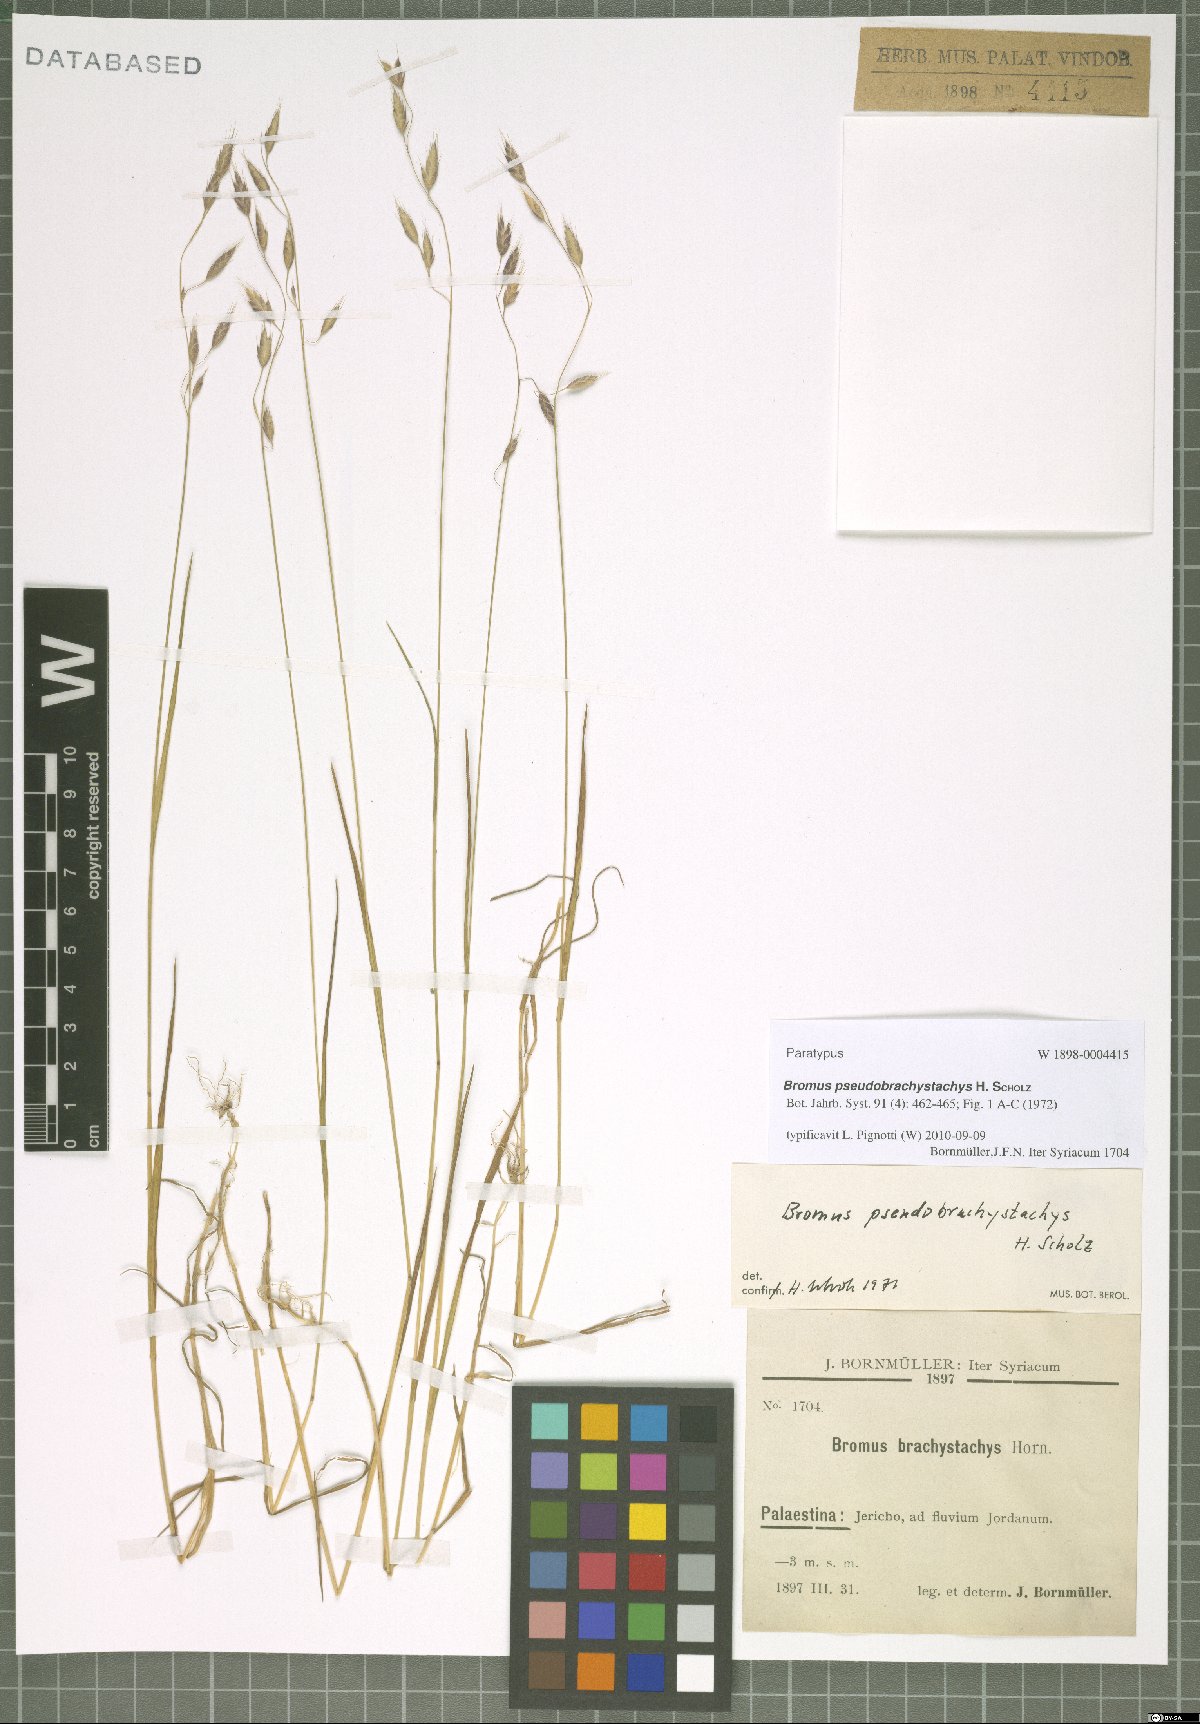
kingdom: Plantae
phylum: Tracheophyta
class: Liliopsida
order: Poales
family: Poaceae
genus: Bromus
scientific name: Bromus pseudobrachystachys
